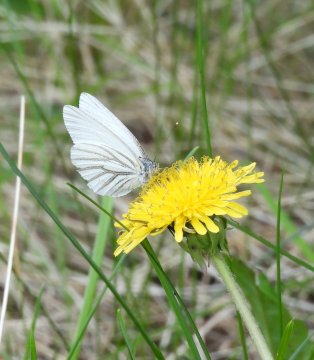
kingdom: Animalia
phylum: Arthropoda
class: Insecta
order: Lepidoptera
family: Pieridae
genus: Pieris
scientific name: Pieris oleracea
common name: Mustard White
